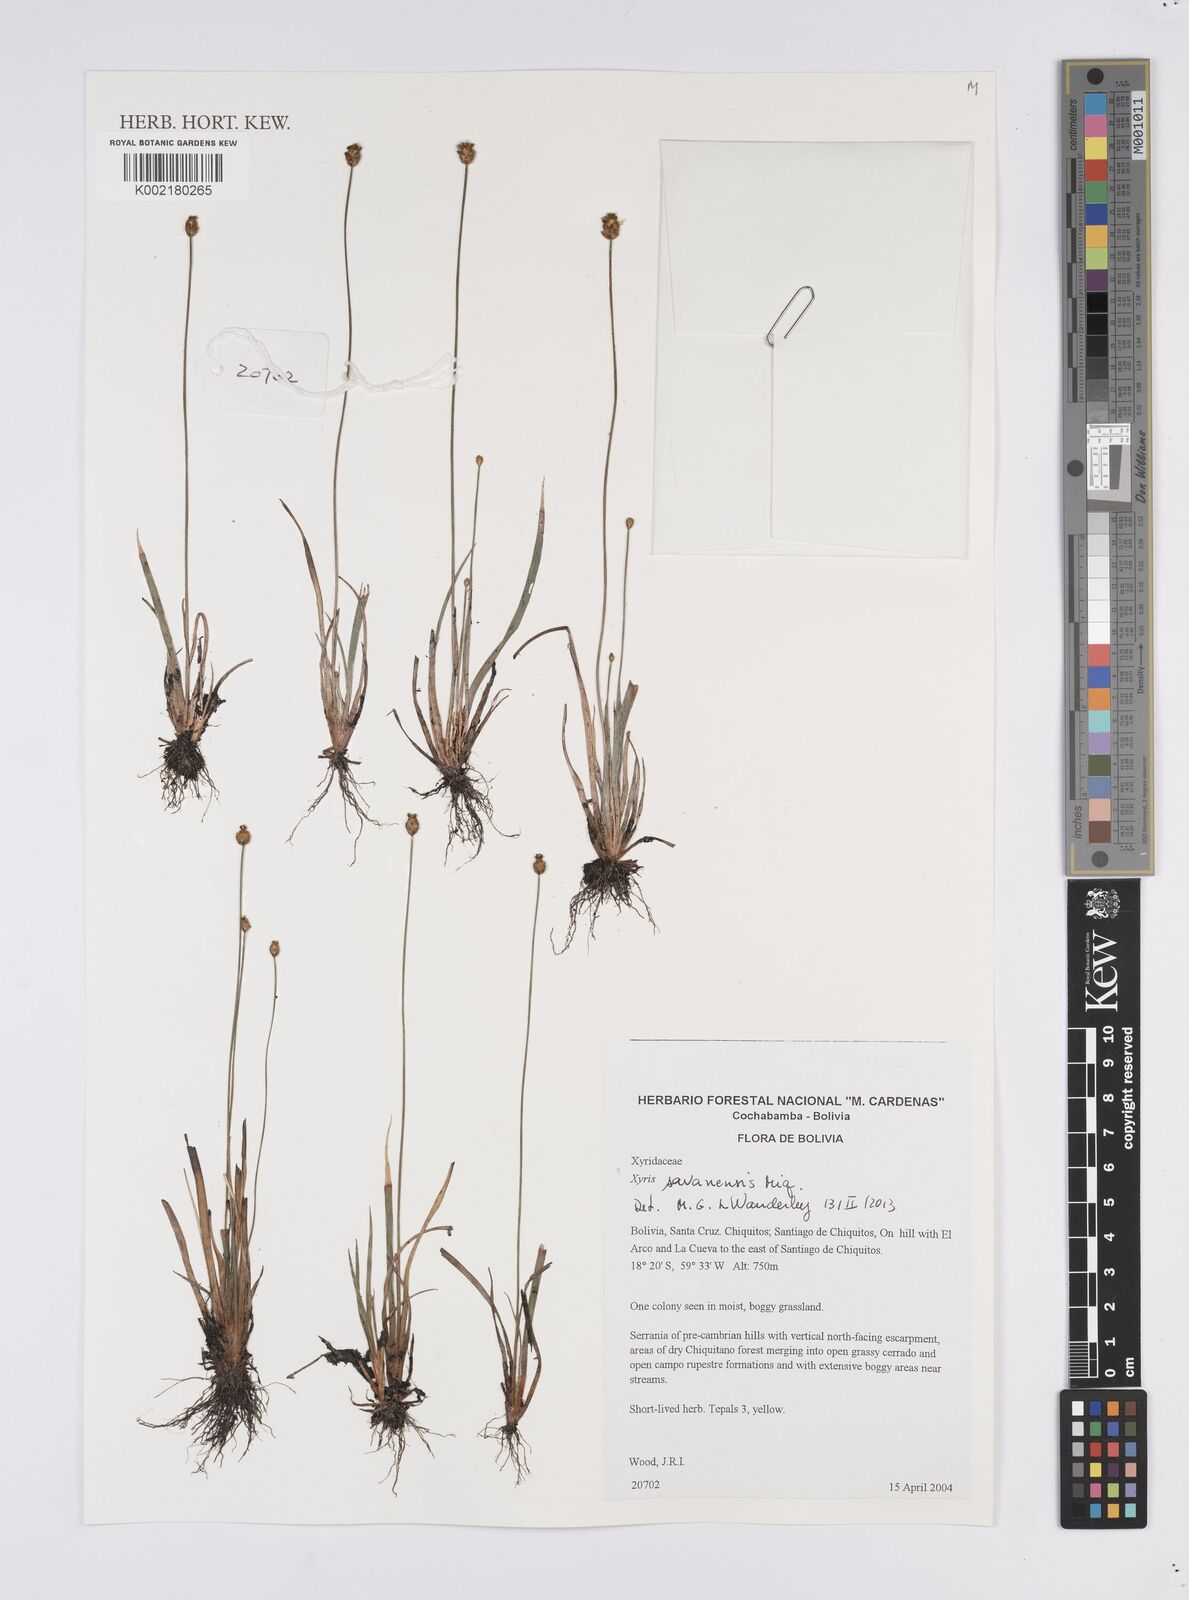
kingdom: Plantae
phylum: Tracheophyta
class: Liliopsida
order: Poales
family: Xyridaceae
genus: Xyris
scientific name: Xyris savanensis
